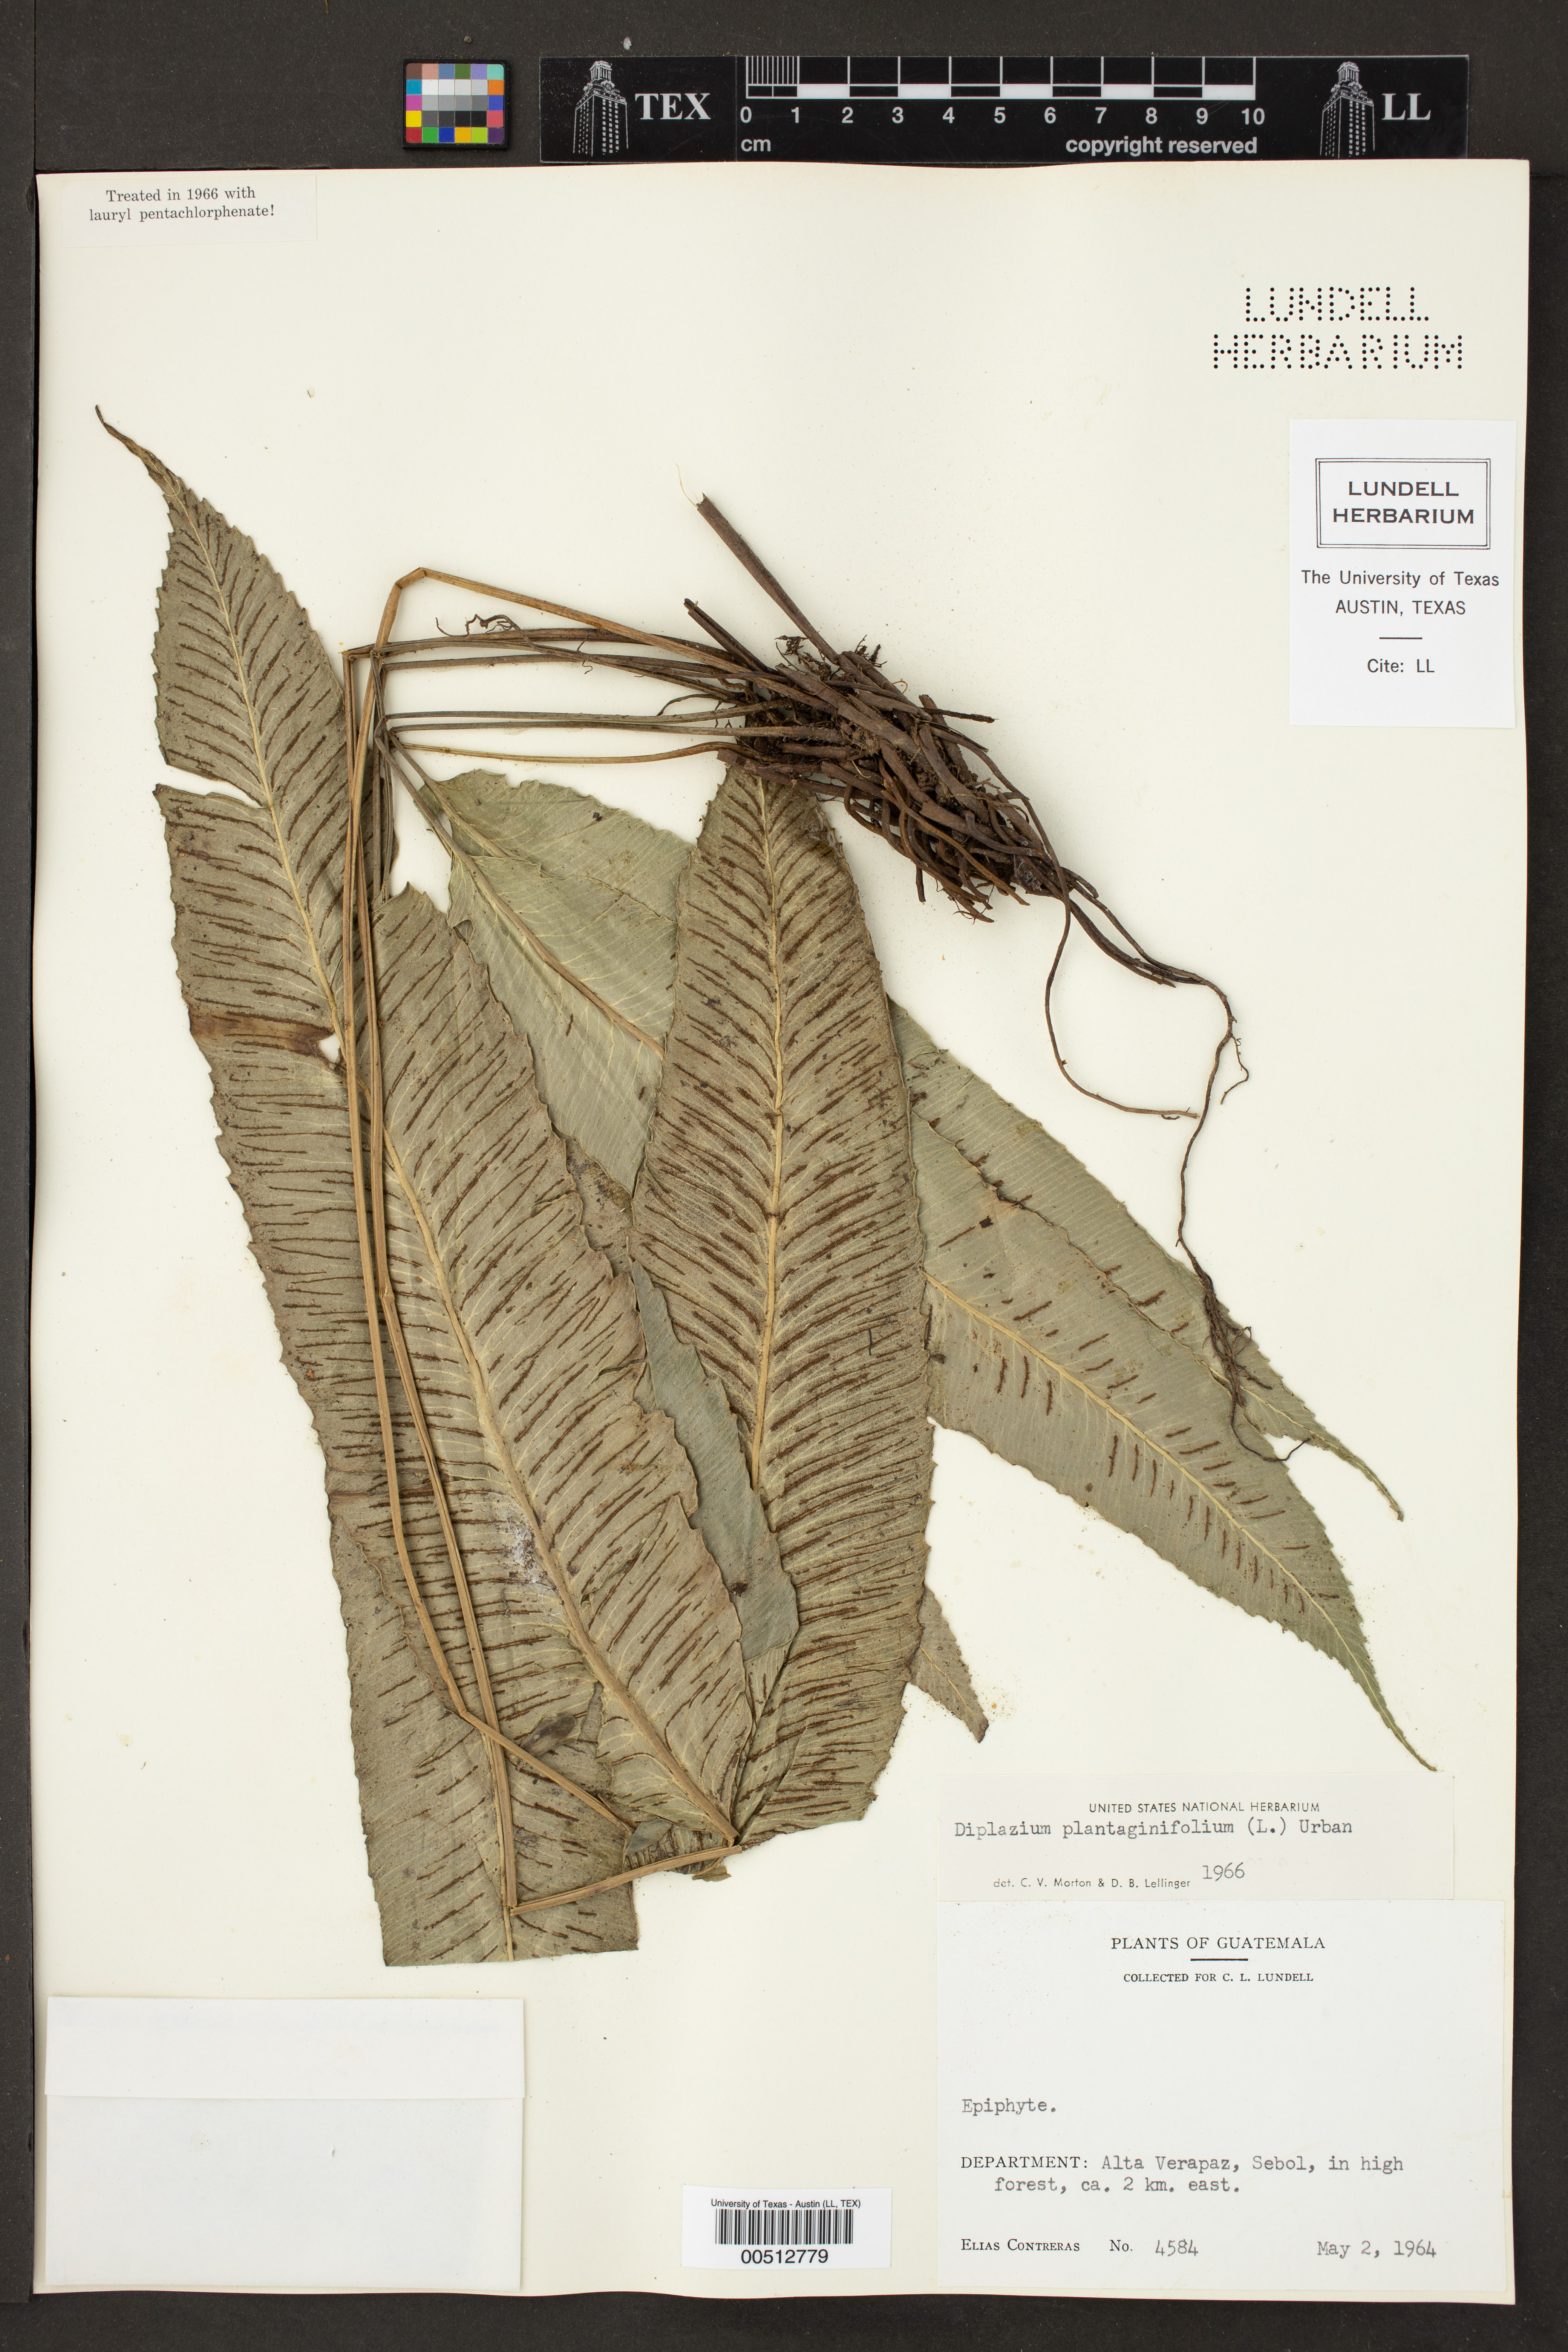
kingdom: Plantae
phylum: Tracheophyta
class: Polypodiopsida
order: Polypodiales
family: Athyriaceae
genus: Diplazium
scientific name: Diplazium plantaginifolium
